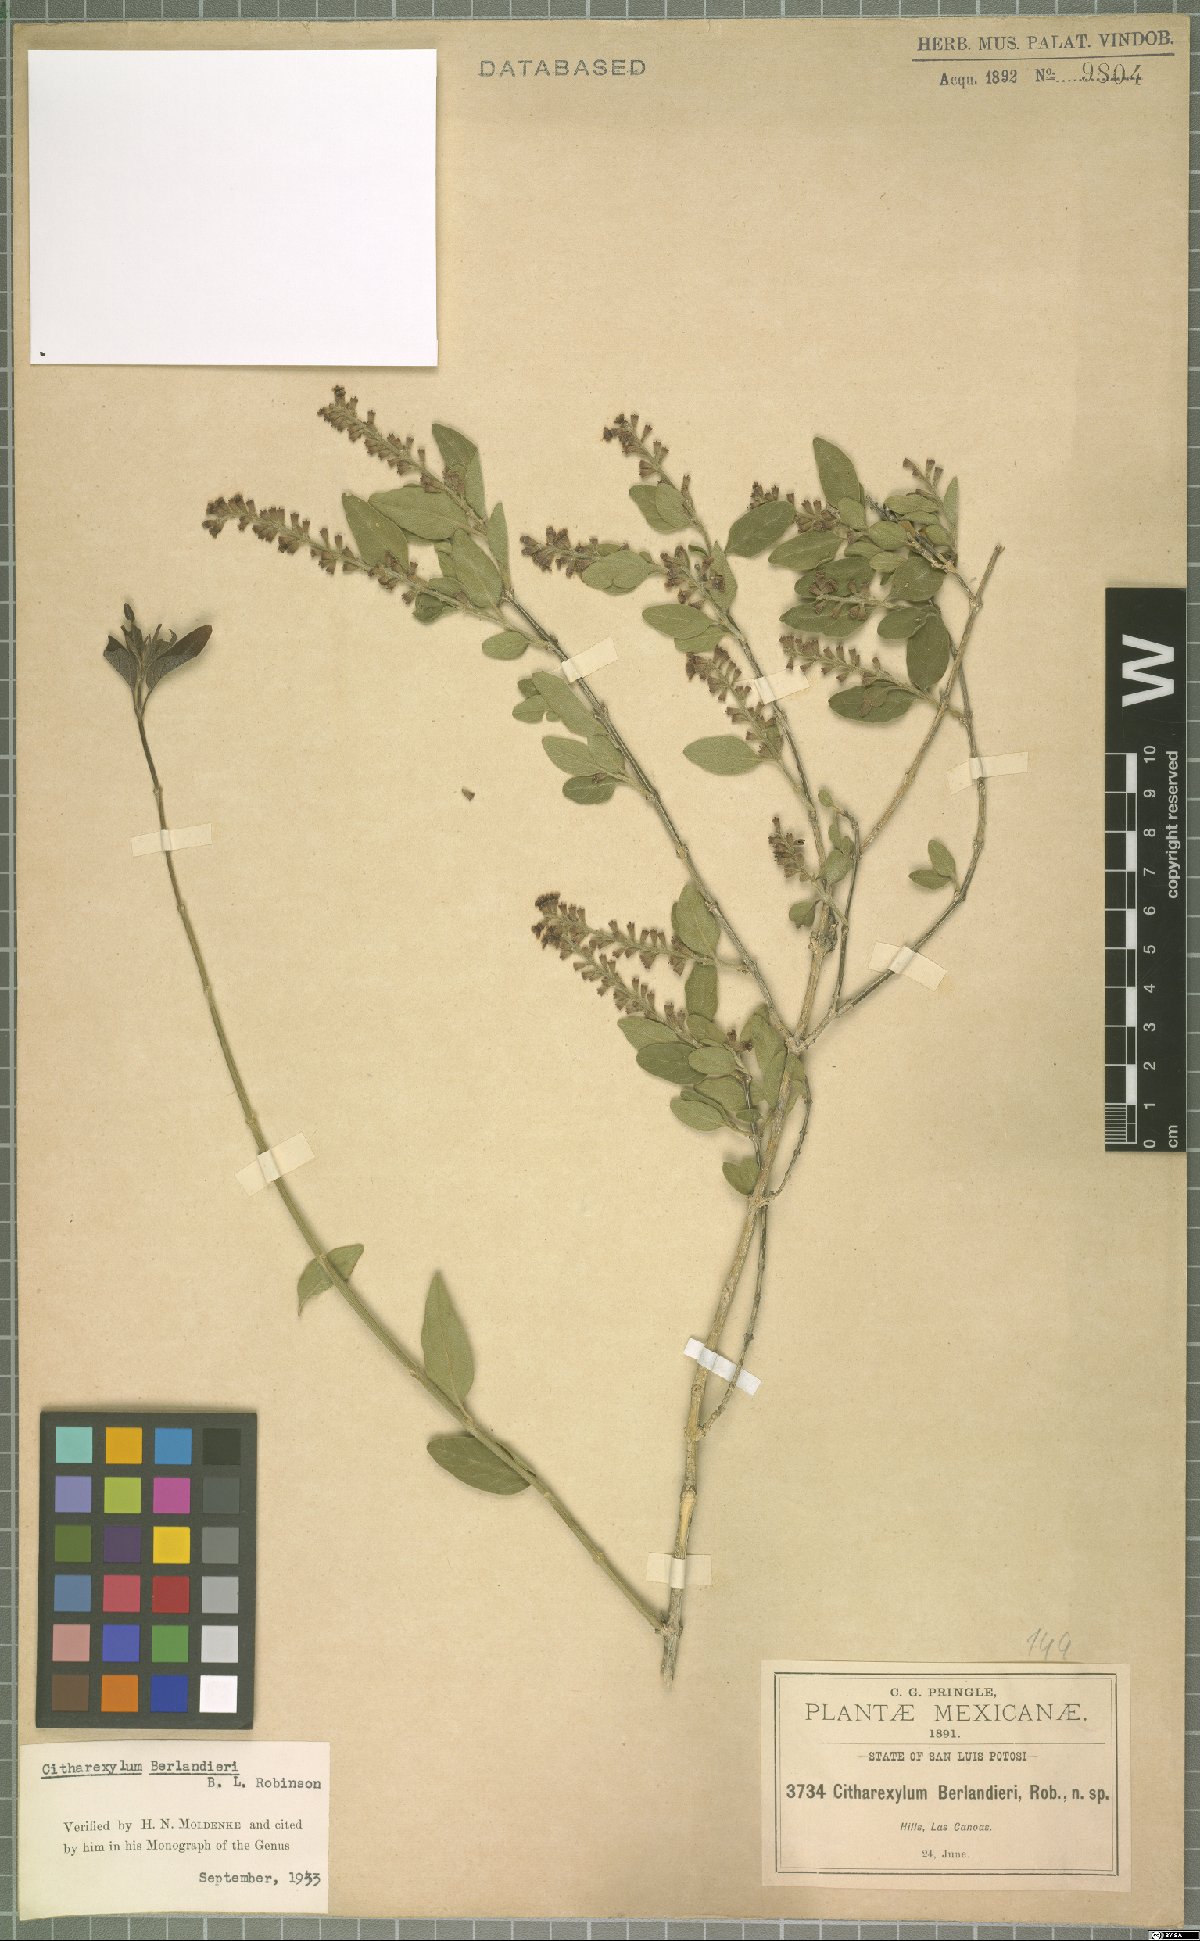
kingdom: Plantae
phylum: Tracheophyta
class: Magnoliopsida
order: Lamiales
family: Verbenaceae
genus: Citharexylum
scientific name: Citharexylum berlandieri
